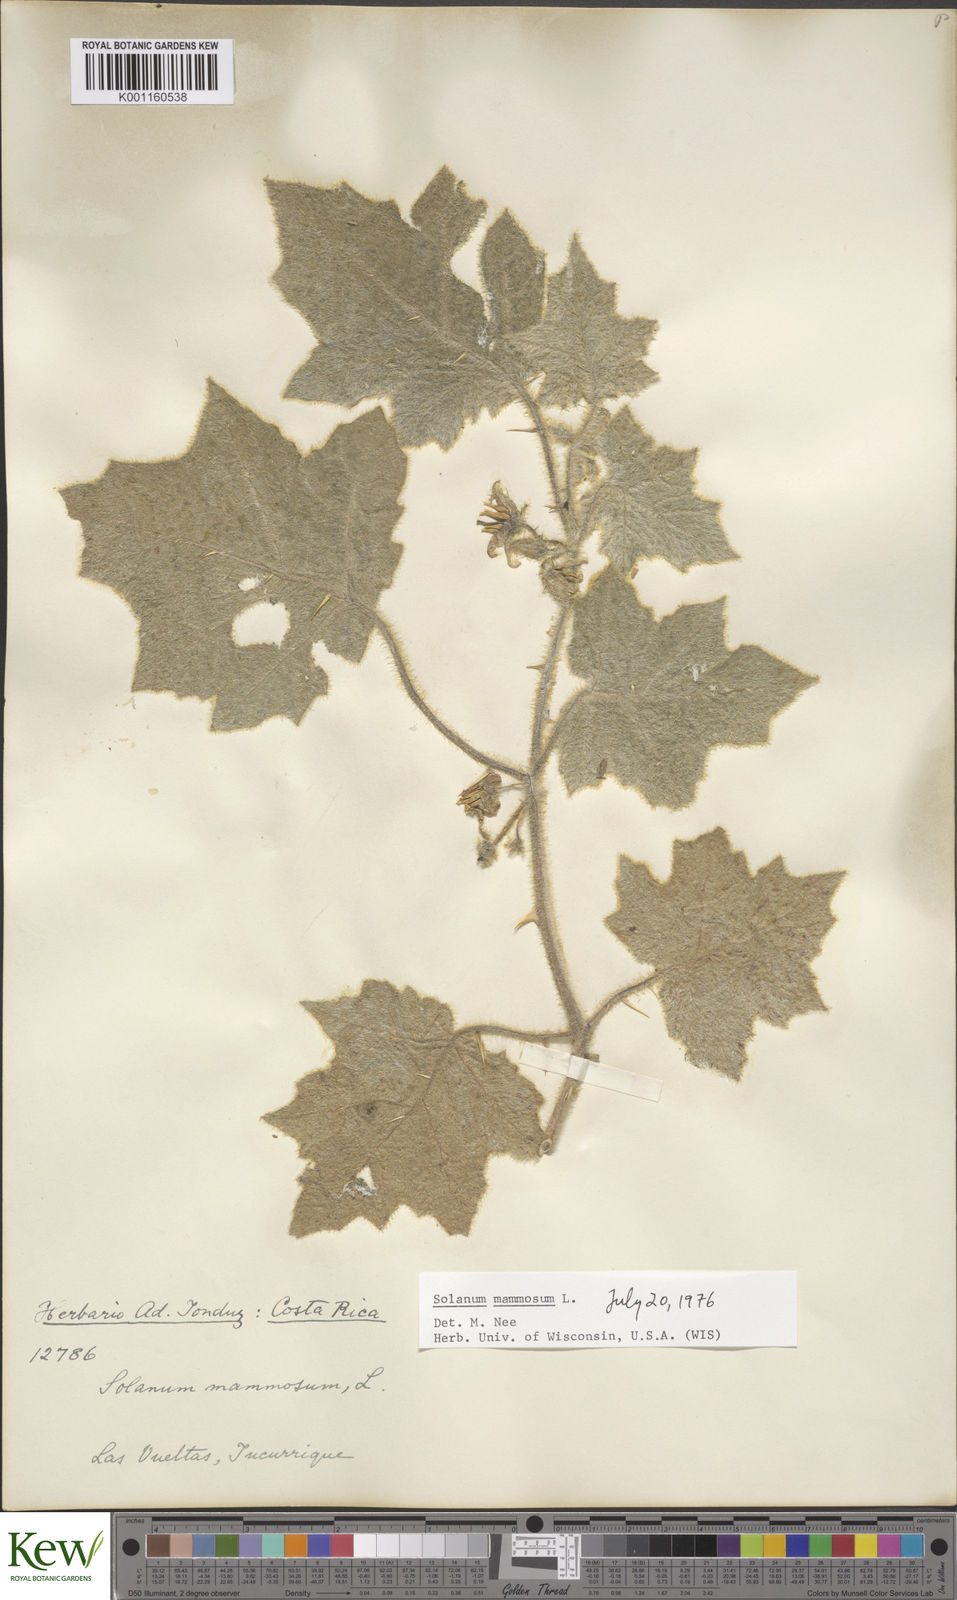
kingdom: Plantae
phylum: Tracheophyta
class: Magnoliopsida
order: Solanales
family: Solanaceae
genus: Solanum
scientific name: Solanum mammosum
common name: Nipple fruit
